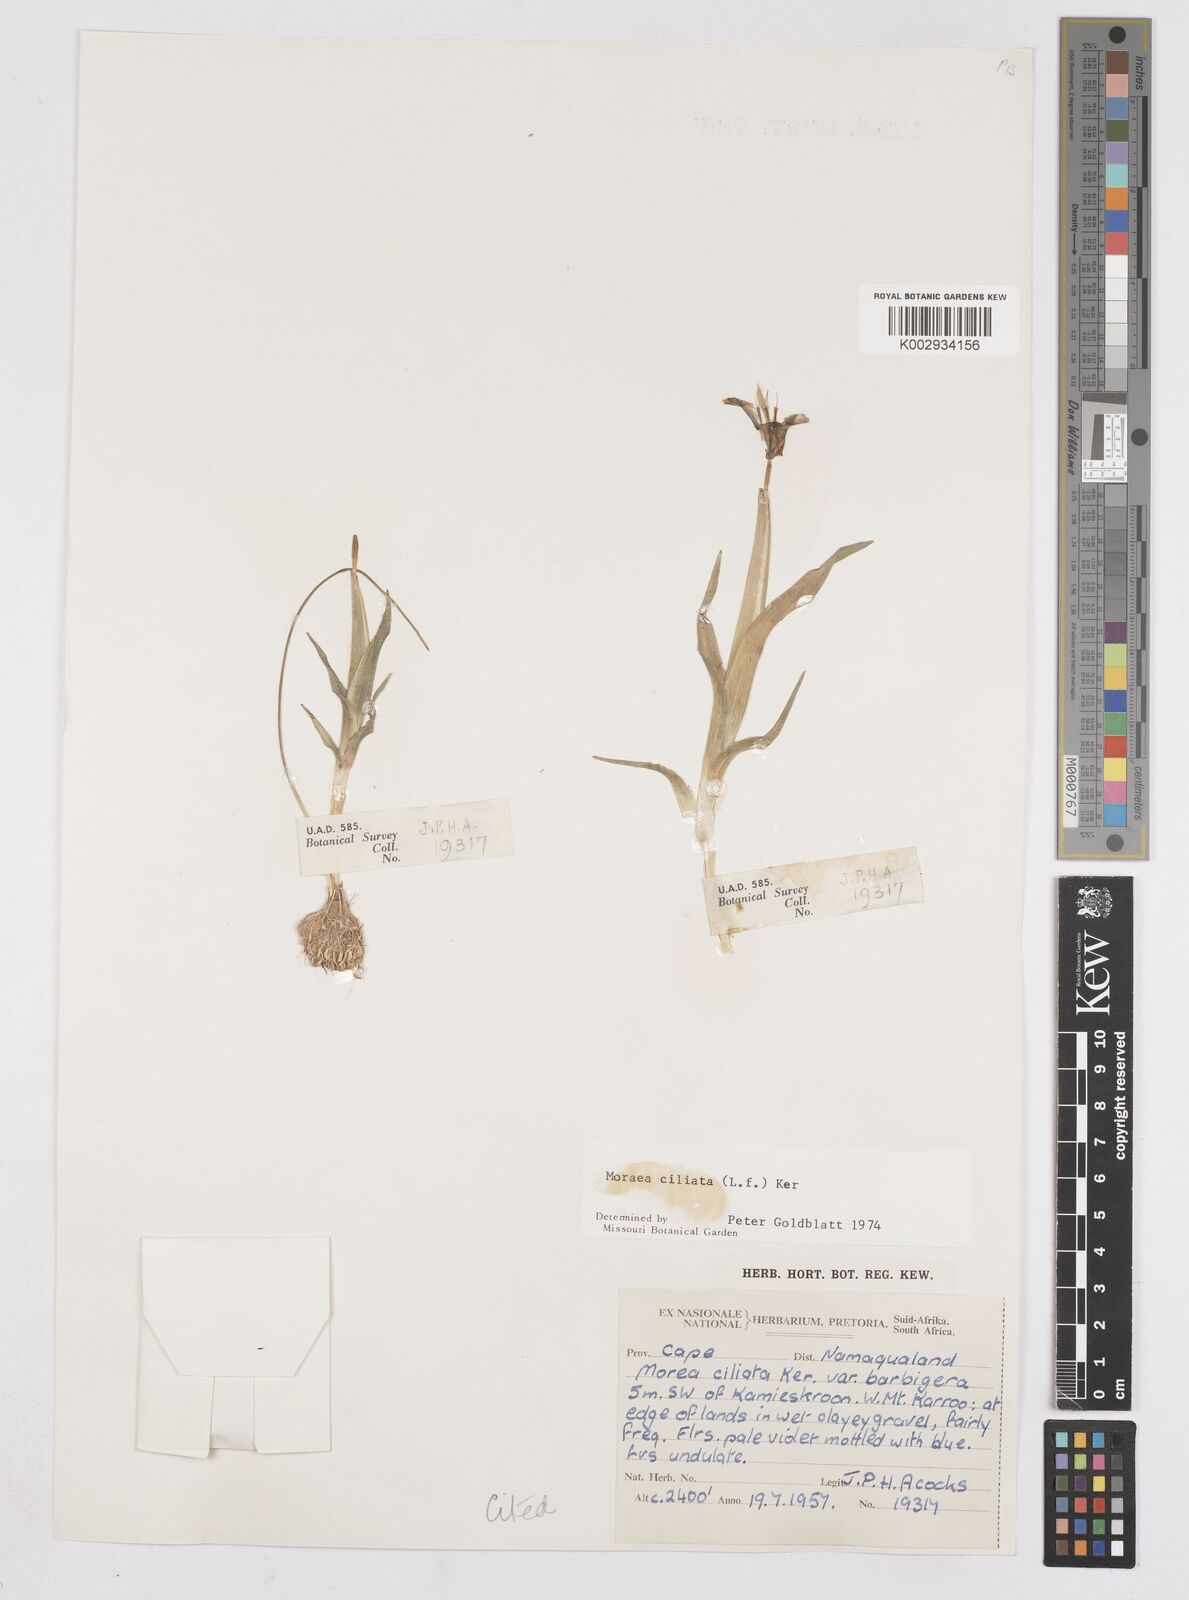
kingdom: Plantae
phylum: Tracheophyta
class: Liliopsida
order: Asparagales
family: Iridaceae
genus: Moraea
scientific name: Moraea ciliata
